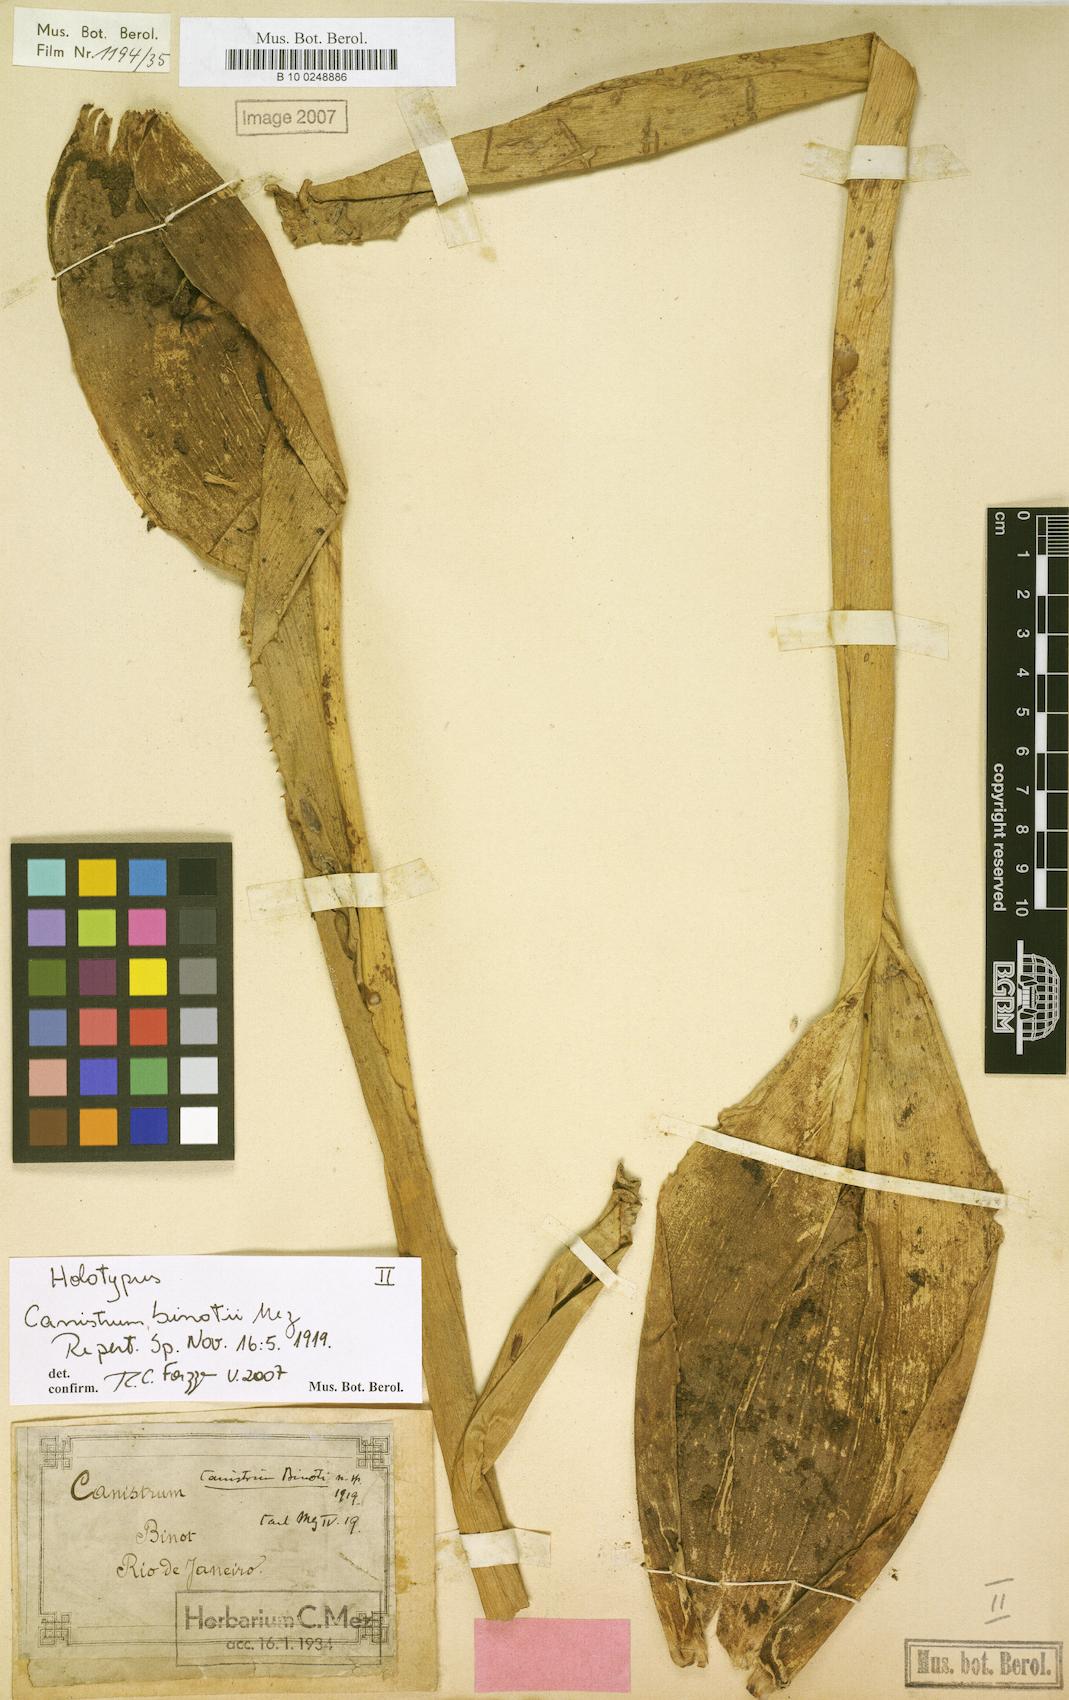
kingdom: Plantae
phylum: Tracheophyta
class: Liliopsida
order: Poales
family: Bromeliaceae
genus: Edmundoa
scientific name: Edmundoa lindenii
